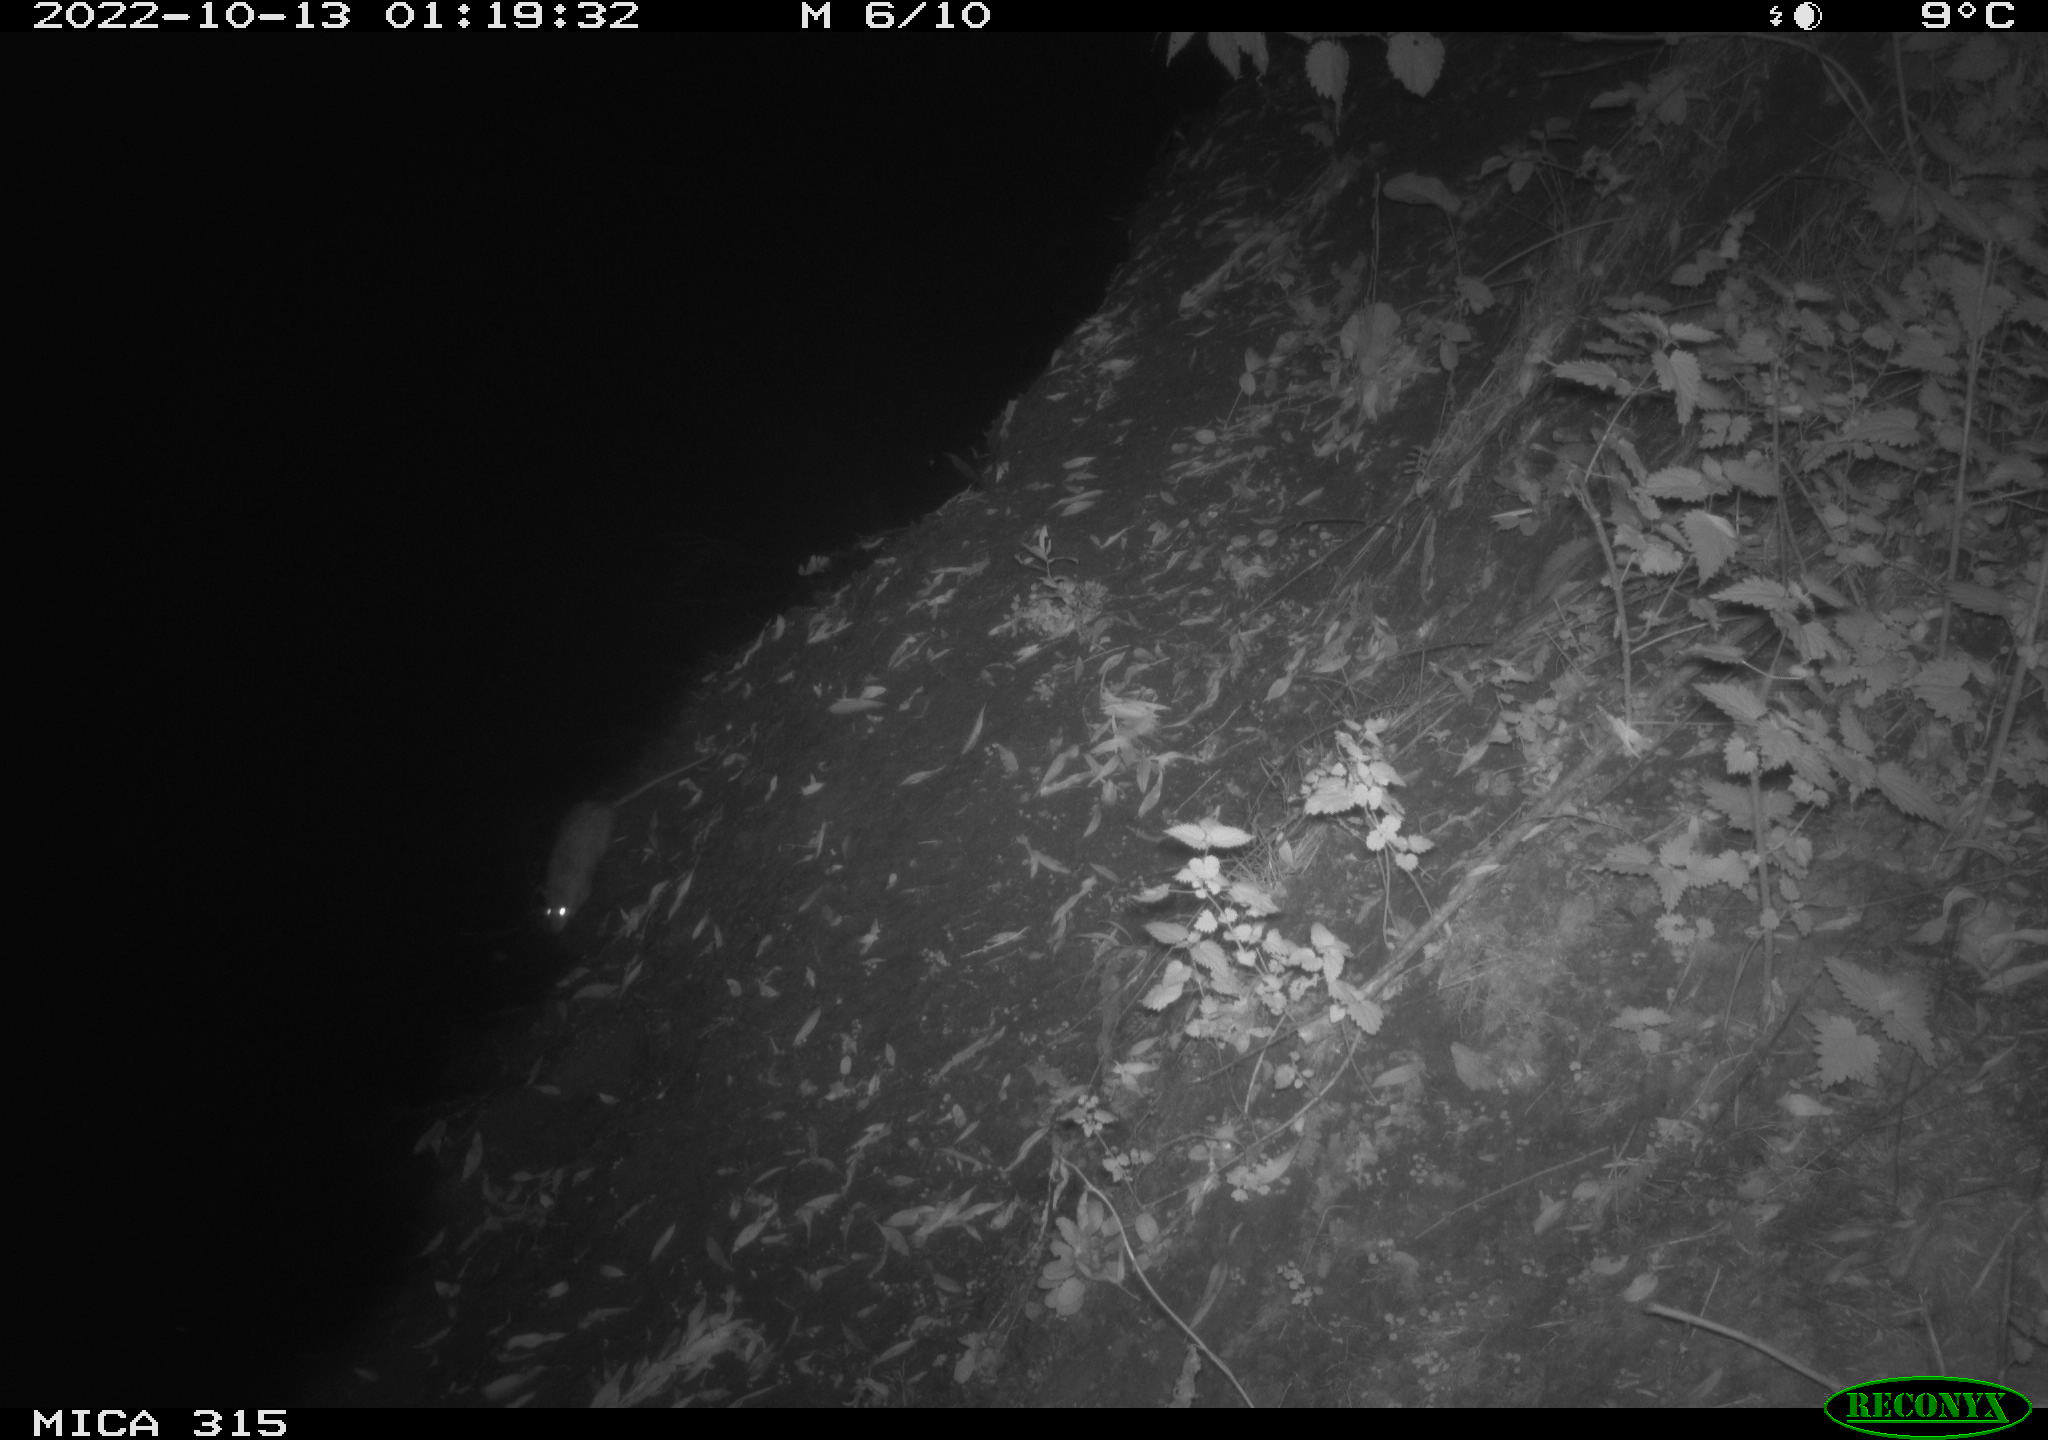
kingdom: Animalia
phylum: Chordata
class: Mammalia
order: Rodentia
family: Muridae
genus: Rattus
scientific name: Rattus norvegicus
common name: Brown rat
